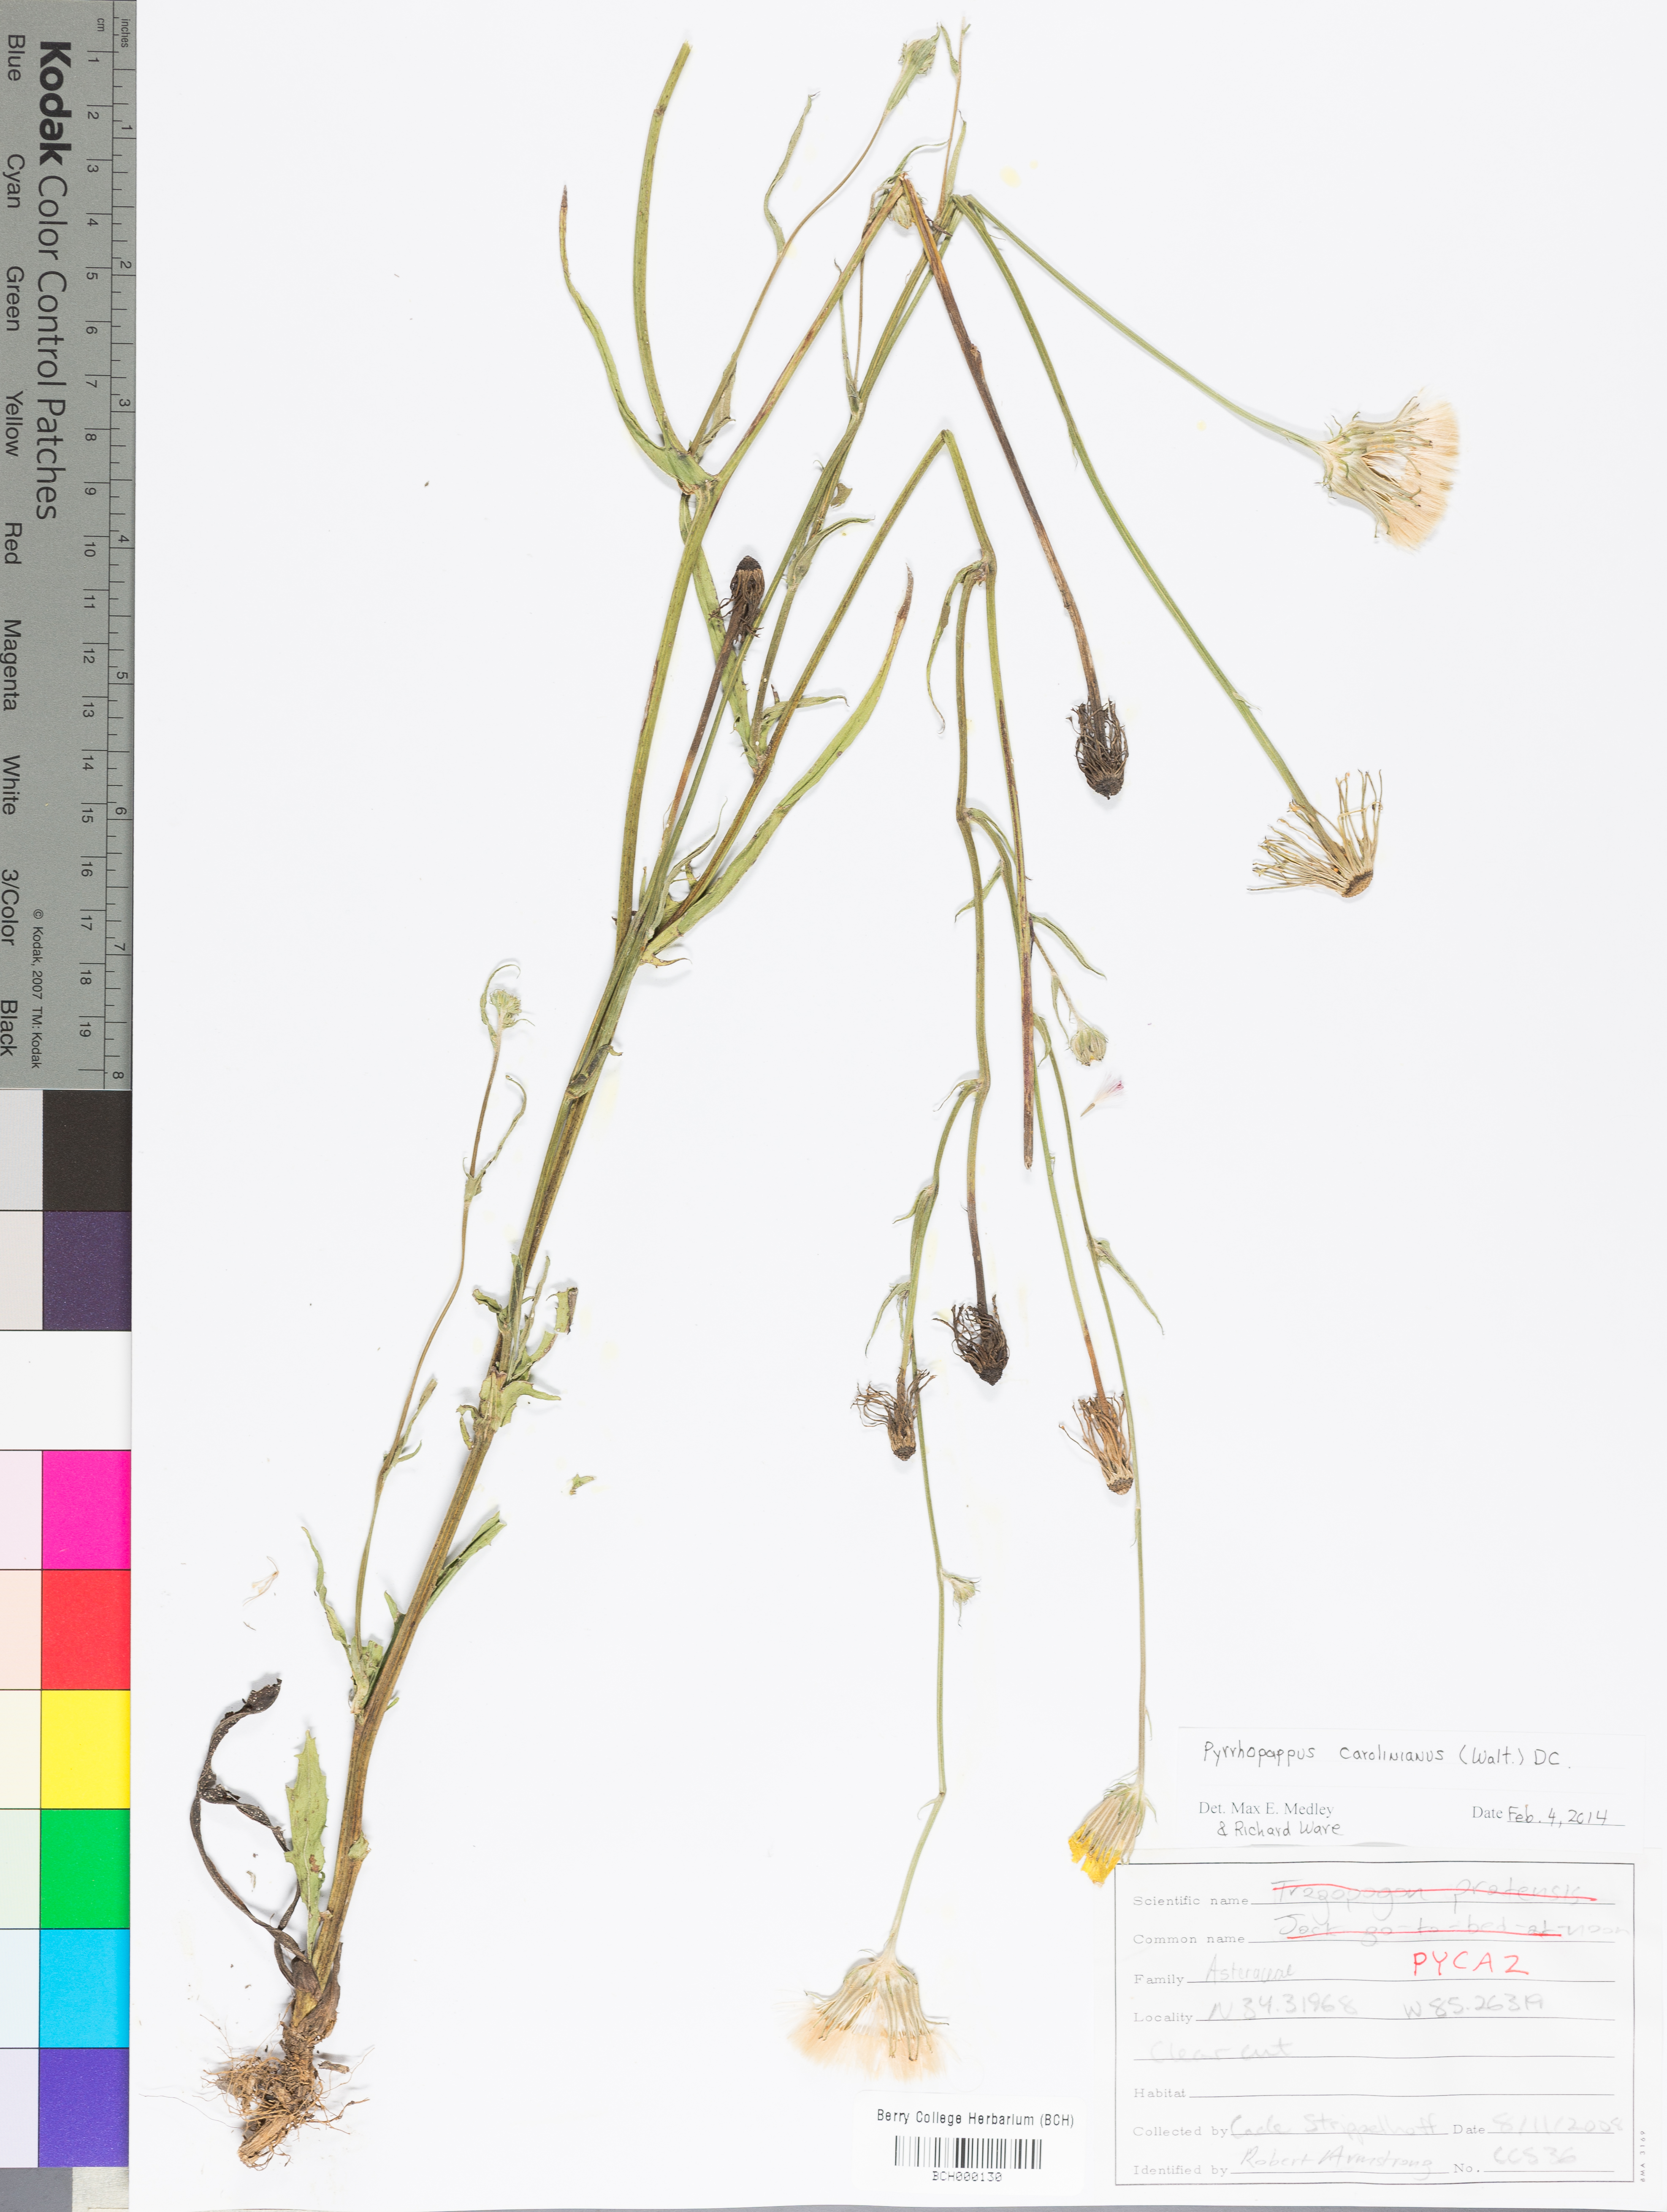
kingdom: Plantae
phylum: Tracheophyta
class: Magnoliopsida
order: Asterales
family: Asteraceae
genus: Pyrrhopappus
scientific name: Pyrrhopappus carolinianus
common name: Carolina desert-chicory
